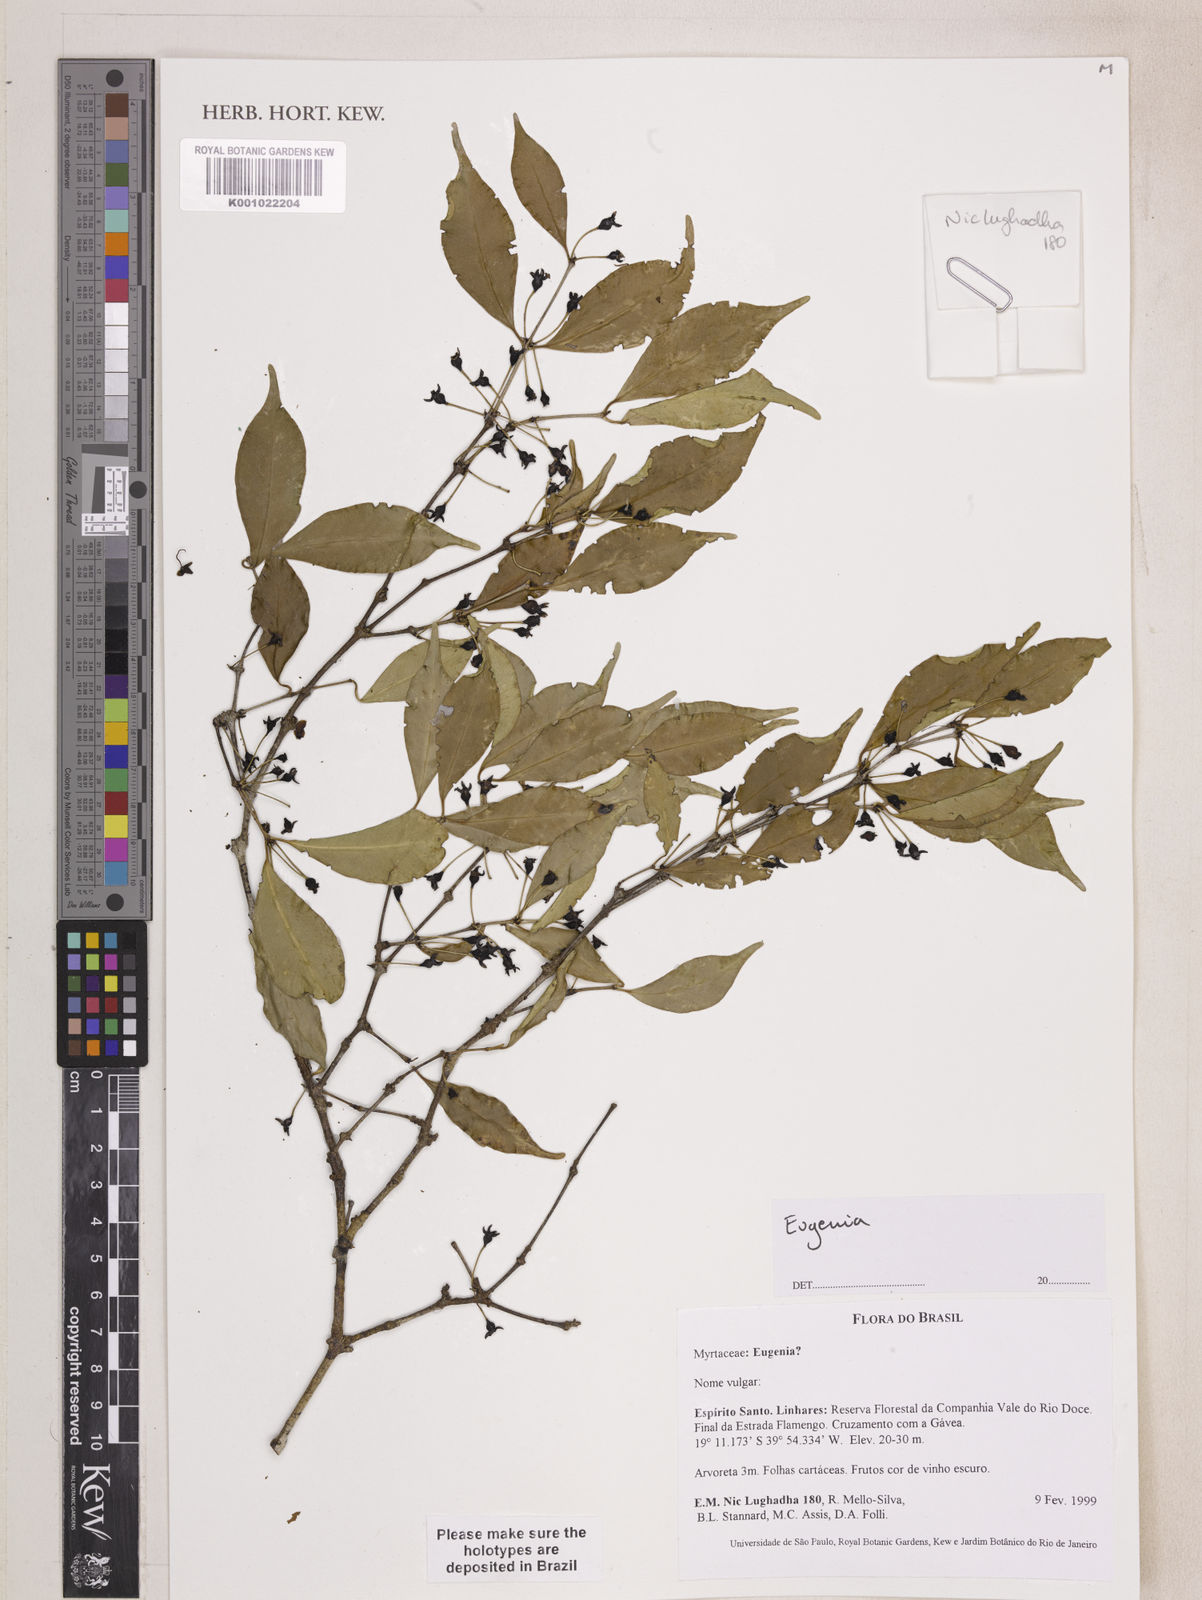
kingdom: Plantae
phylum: Tracheophyta
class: Magnoliopsida
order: Myrtales
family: Myrtaceae
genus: Eugenia
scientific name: Eugenia excelsa
